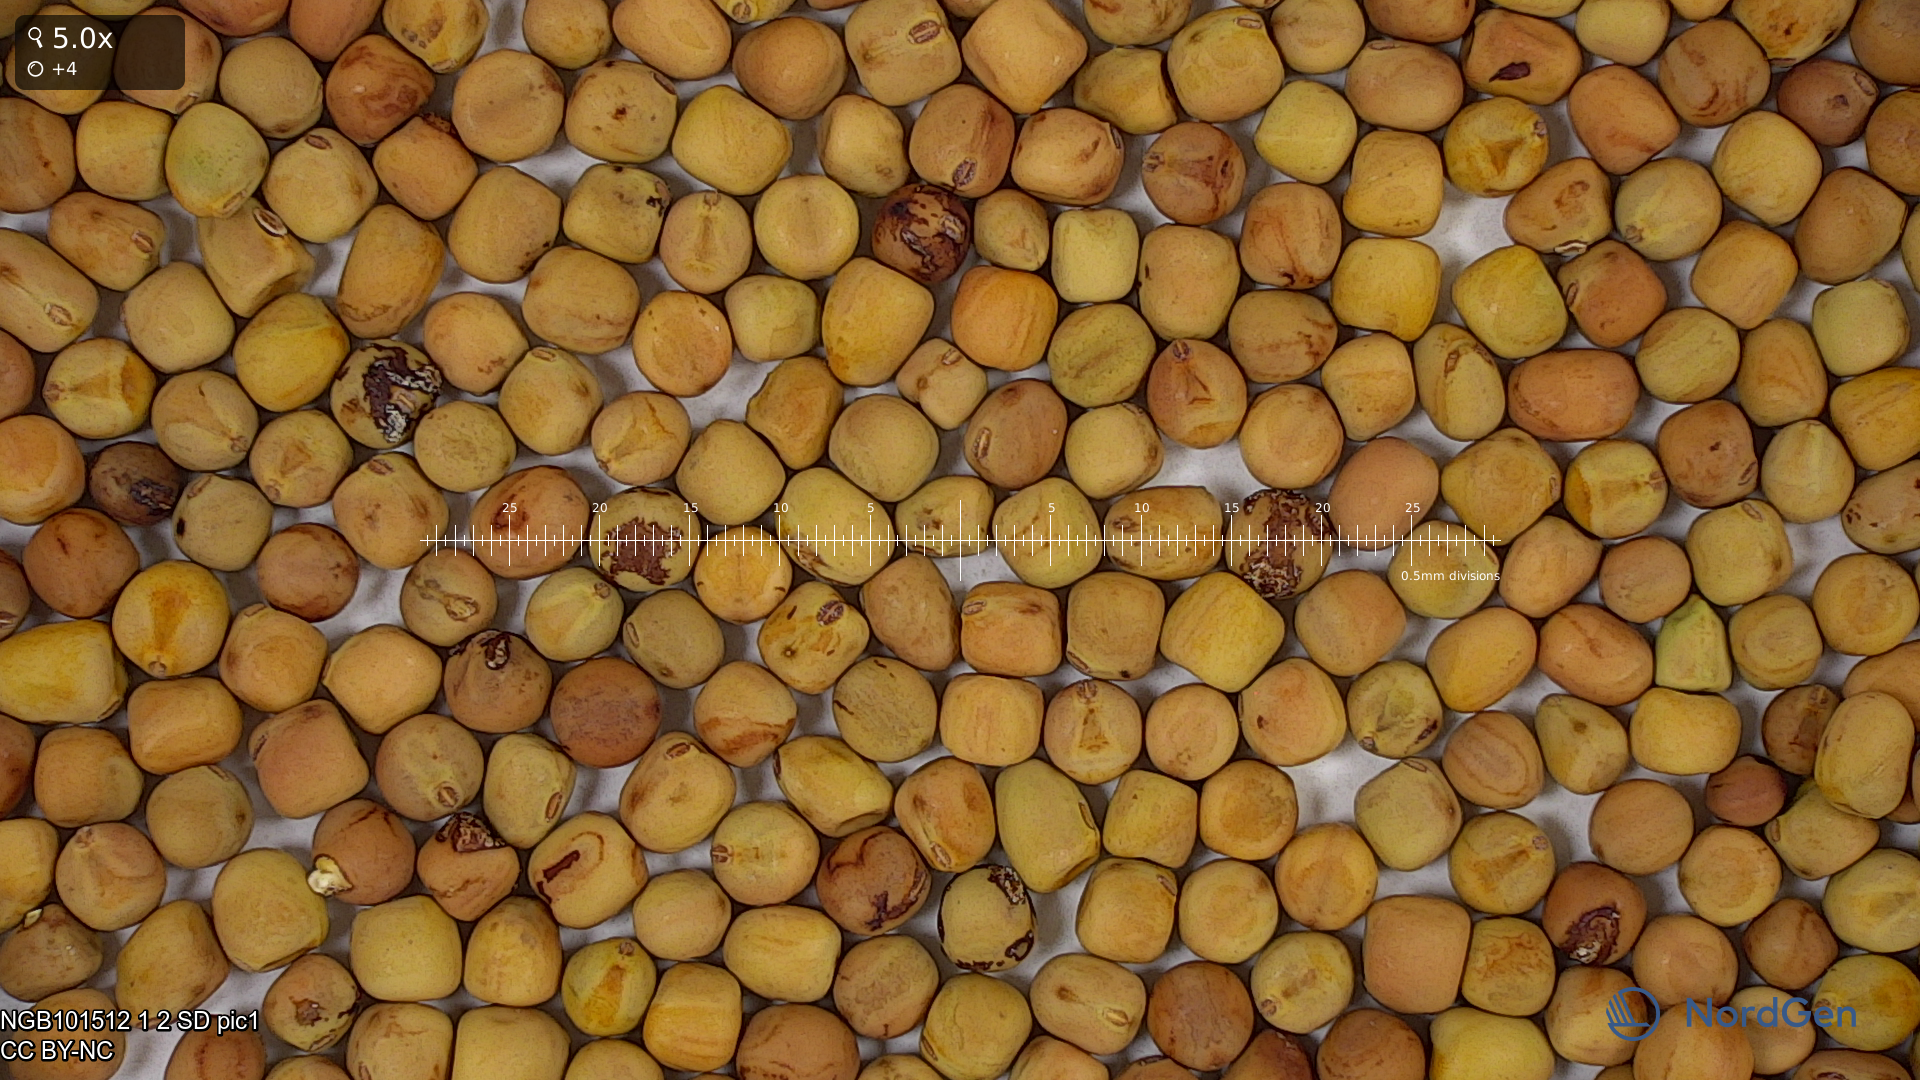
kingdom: Plantae
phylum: Tracheophyta
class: Magnoliopsida
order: Fabales
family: Fabaceae
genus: Lathyrus
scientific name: Lathyrus oleraceus
